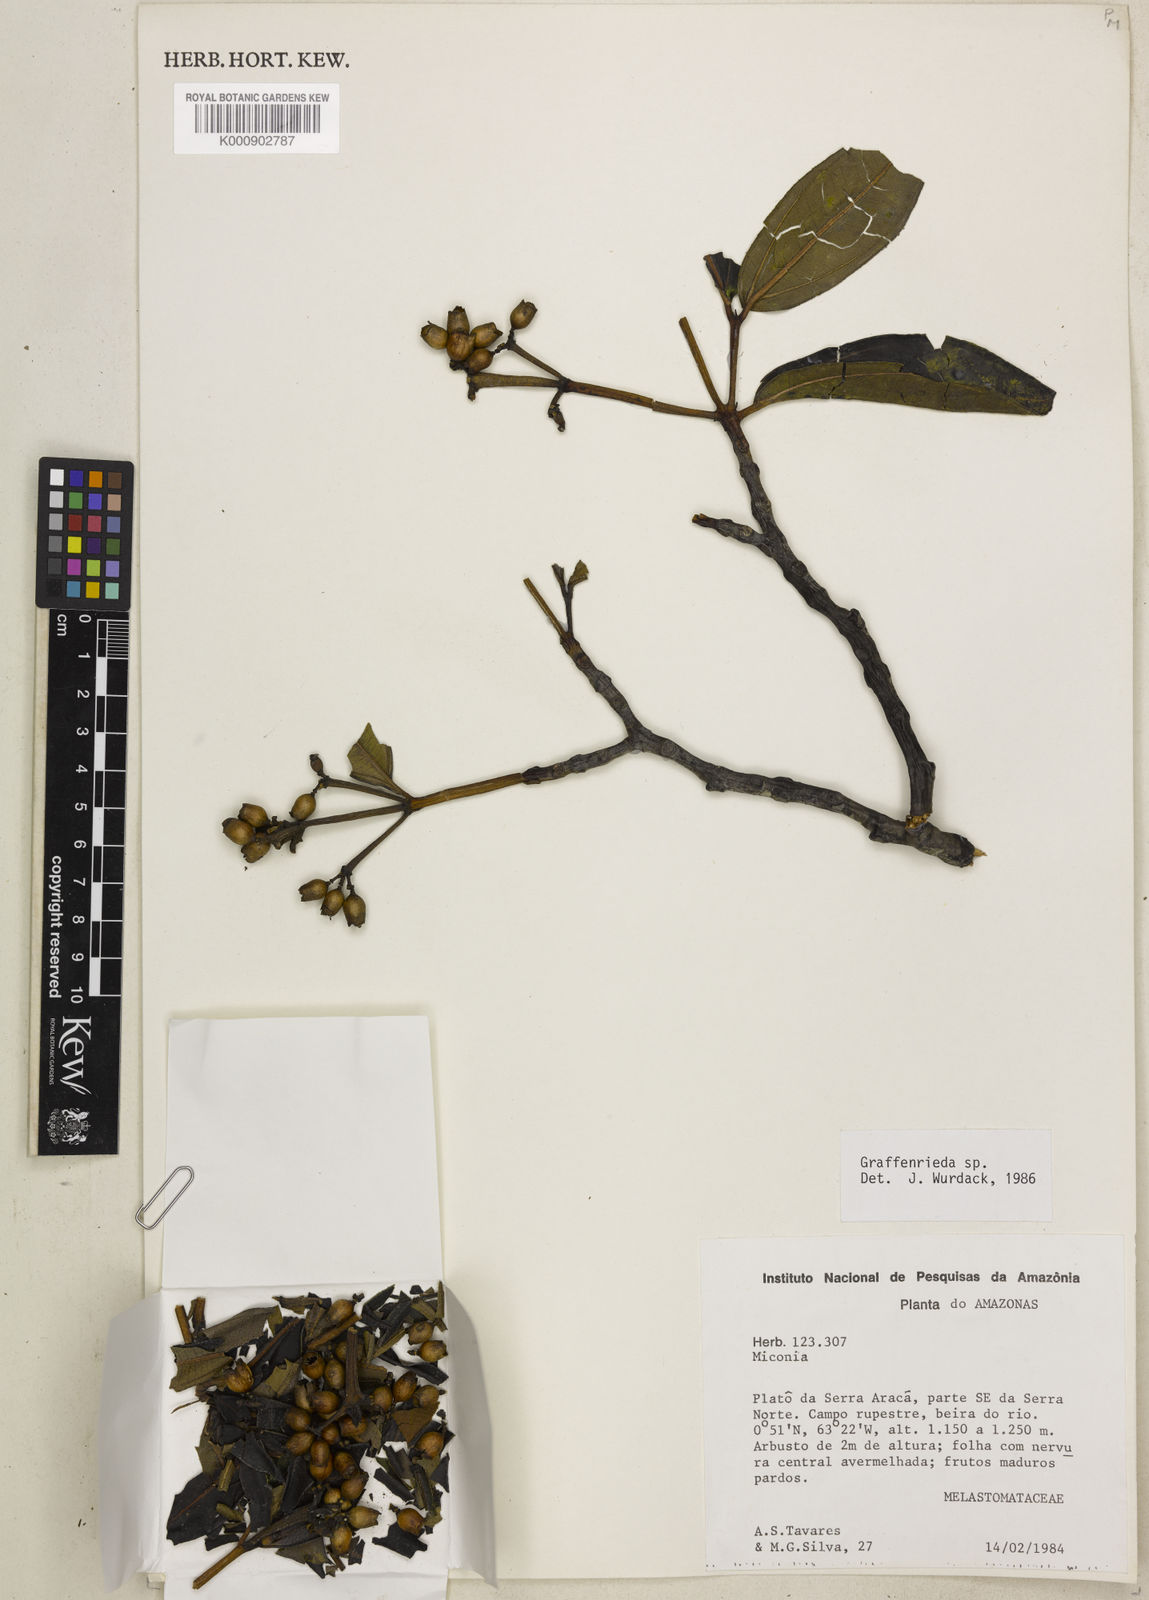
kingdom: Plantae
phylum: Tracheophyta
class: Magnoliopsida
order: Myrtales
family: Melastomataceae
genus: Graffenrieda
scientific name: Graffenrieda laevicarpa
